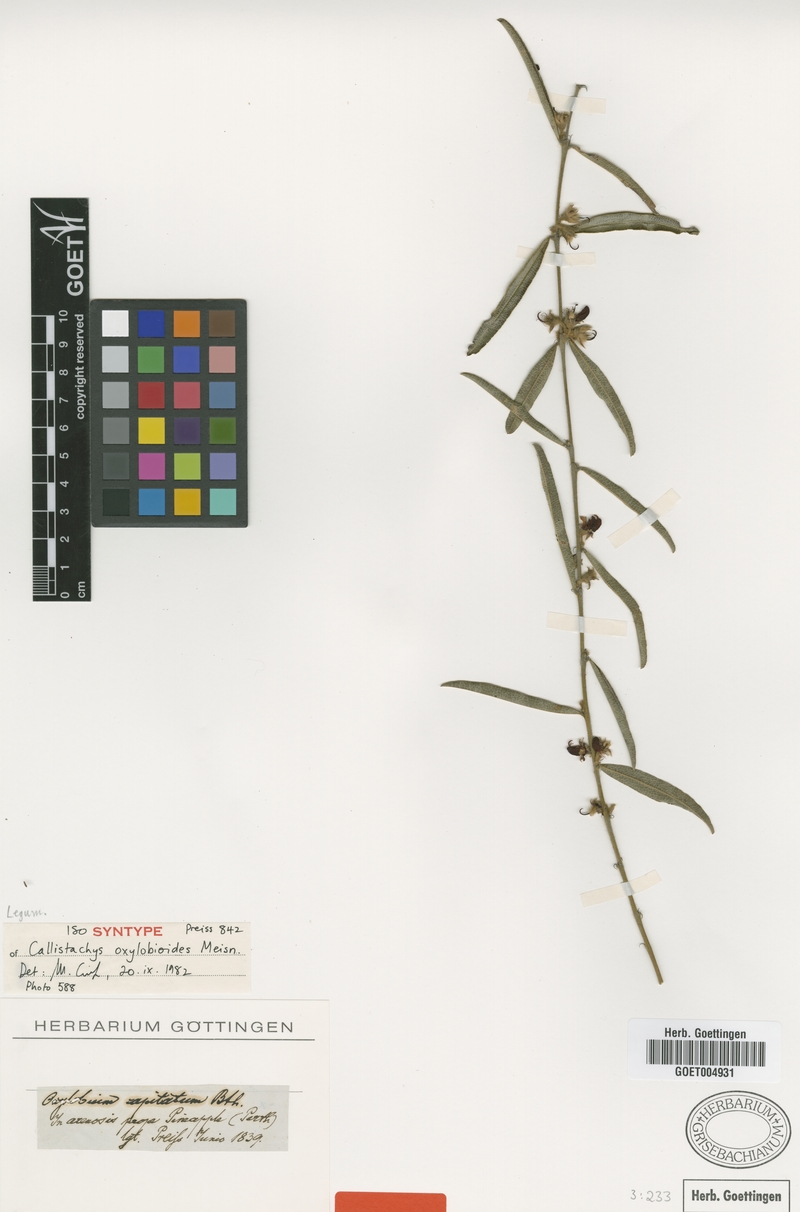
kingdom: Plantae
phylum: Tracheophyta
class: Magnoliopsida
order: Fabales
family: Fabaceae
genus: Gastrolobium
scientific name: Gastrolobium linearifolium
